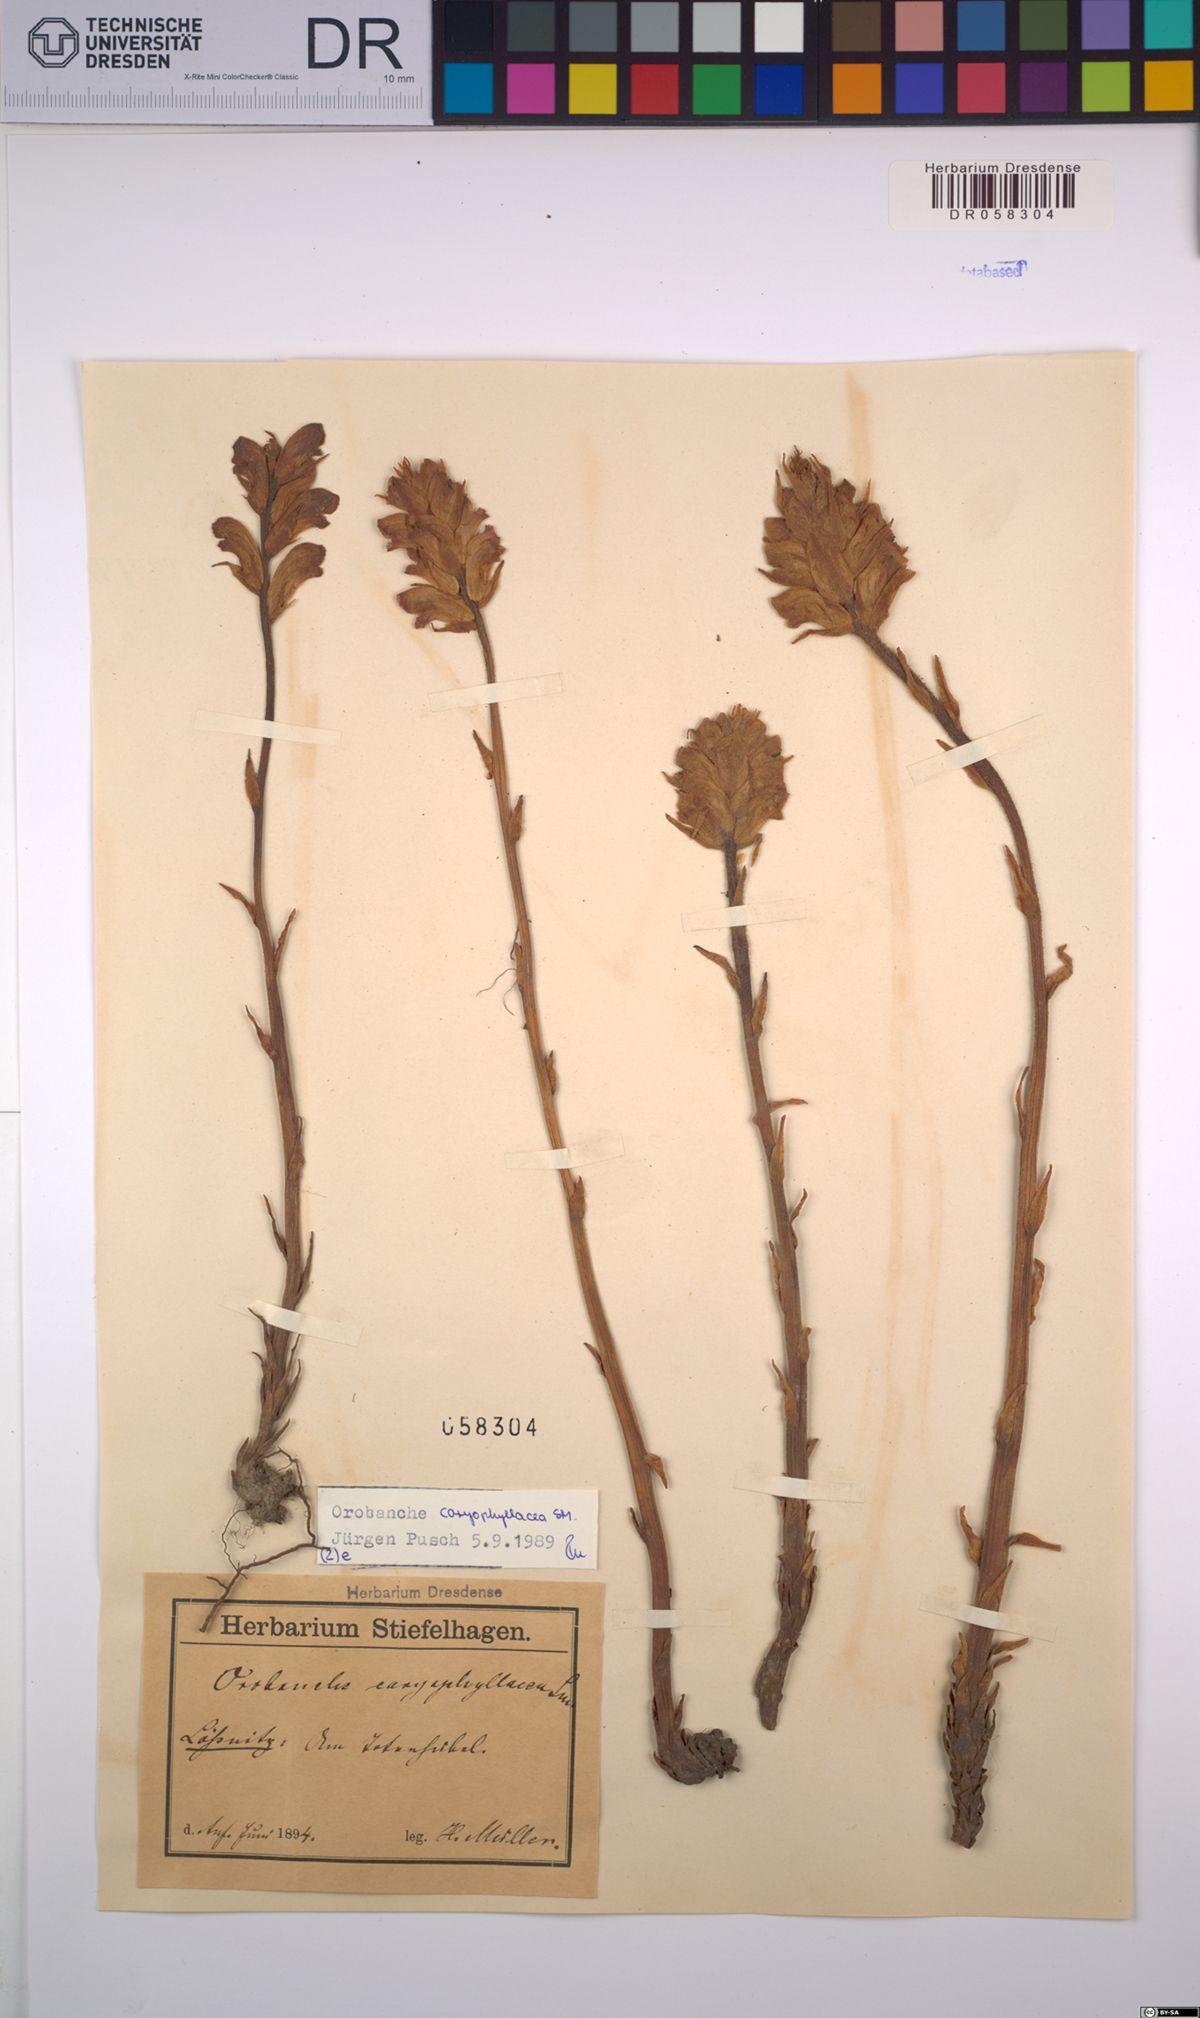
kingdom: Plantae
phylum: Tracheophyta
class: Magnoliopsida
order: Lamiales
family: Orobanchaceae
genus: Orobanche
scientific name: Orobanche caryophyllacea
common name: Bedstraw broomrape
